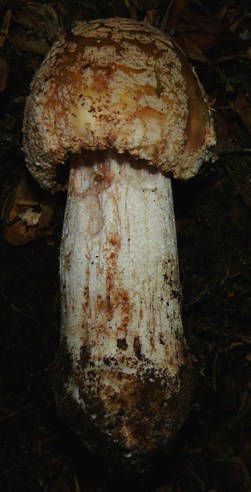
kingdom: Fungi
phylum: Basidiomycota
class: Agaricomycetes
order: Agaricales
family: Amanitaceae
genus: Amanita
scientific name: Amanita rubescens
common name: rødmende fluesvamp
